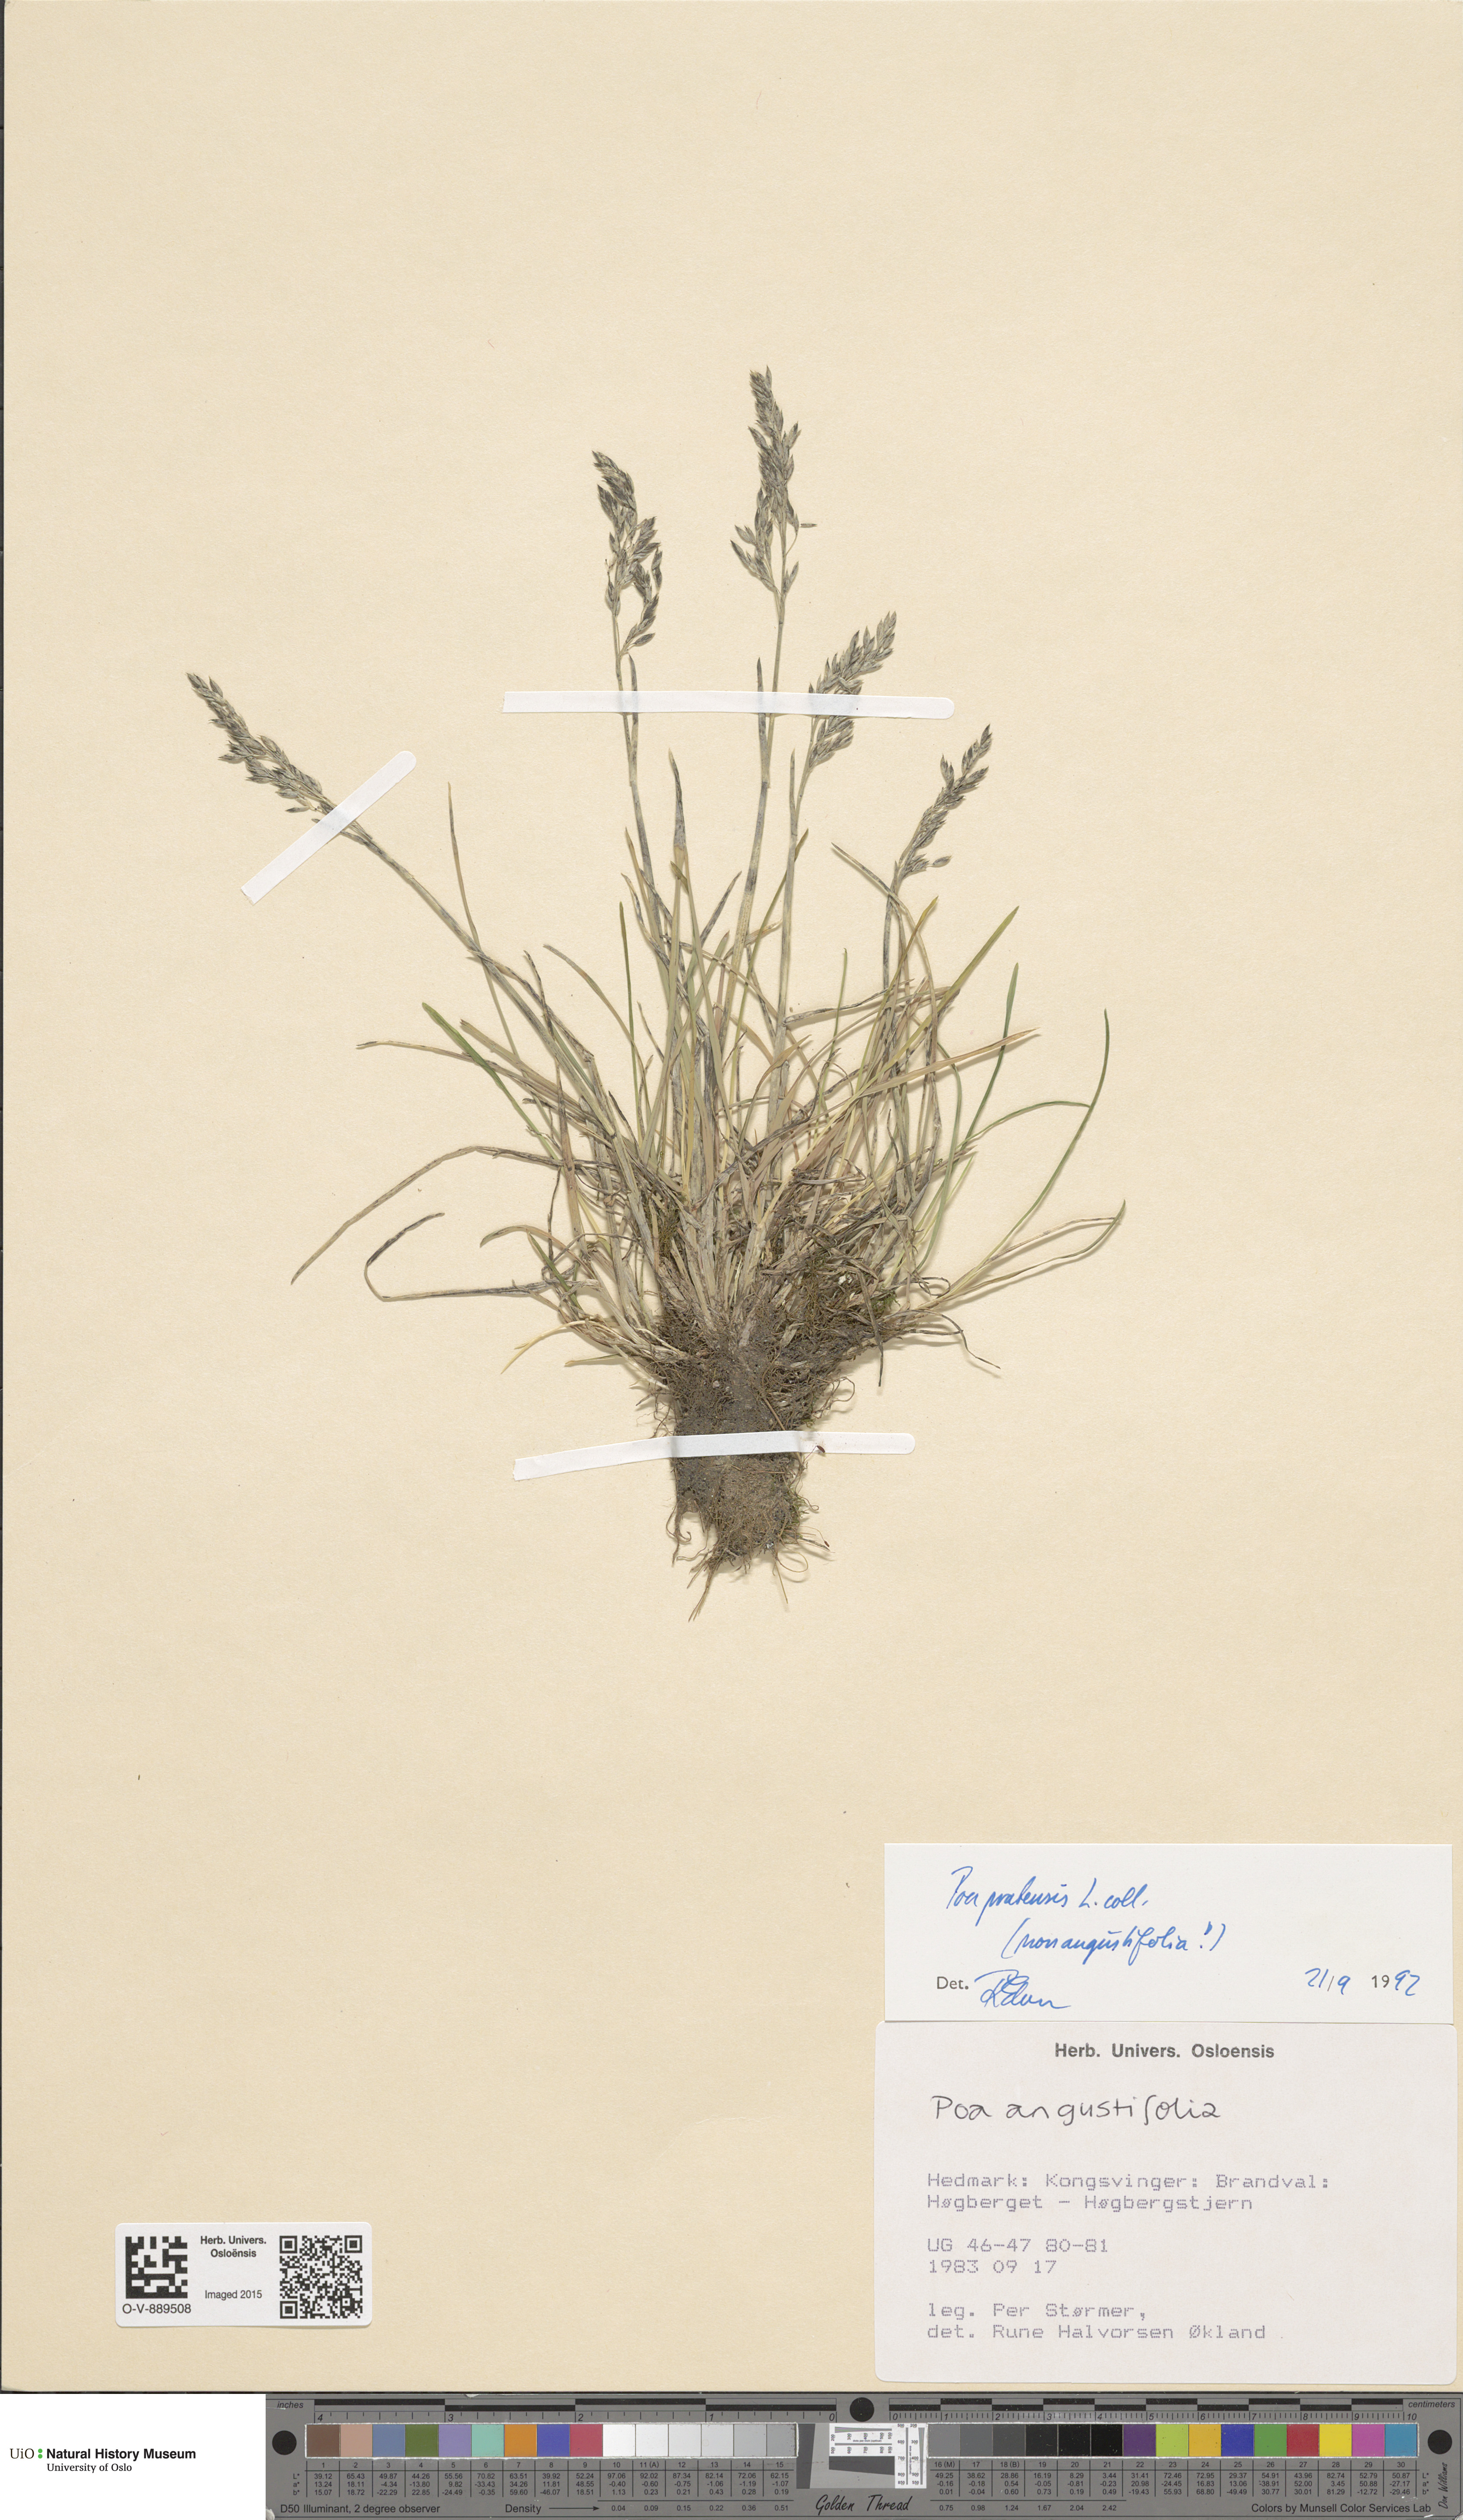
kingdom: Plantae
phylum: Tracheophyta
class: Liliopsida
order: Poales
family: Poaceae
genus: Poa
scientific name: Poa pratensis
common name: Kentucky bluegrass
